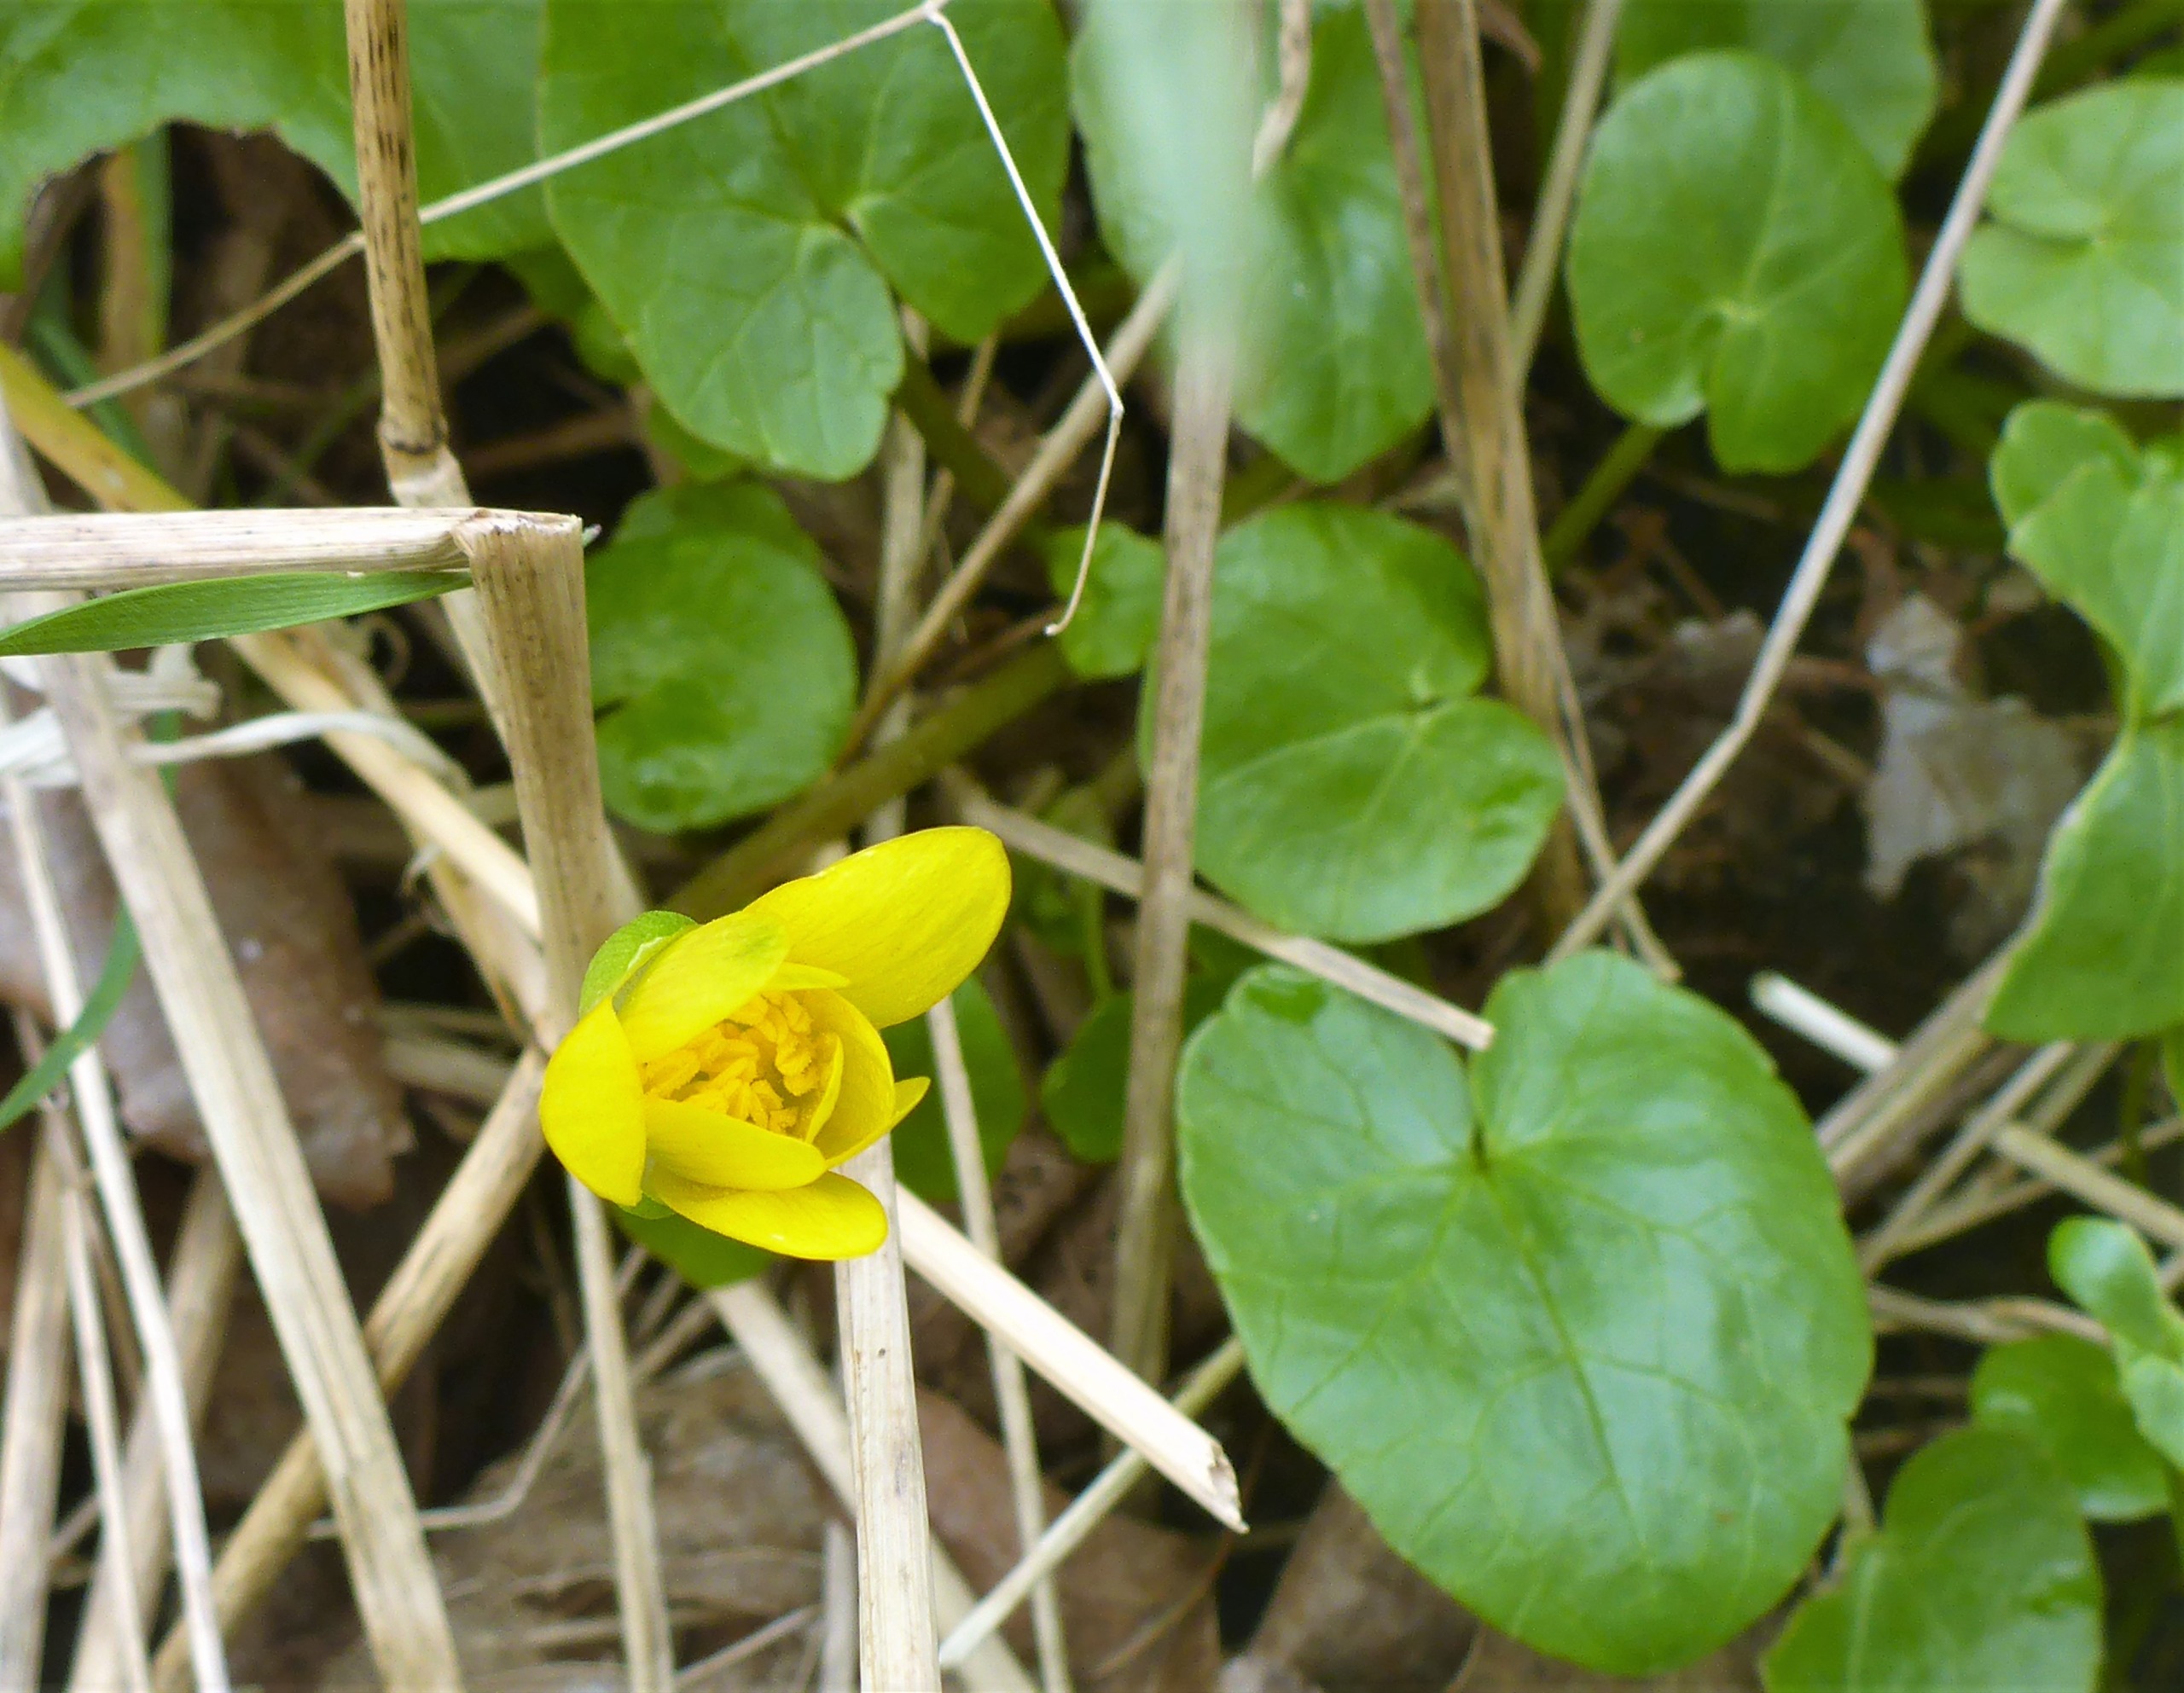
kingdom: Plantae
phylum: Tracheophyta
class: Magnoliopsida
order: Ranunculales
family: Ranunculaceae
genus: Ficaria
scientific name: Ficaria verna
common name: Vorterod
